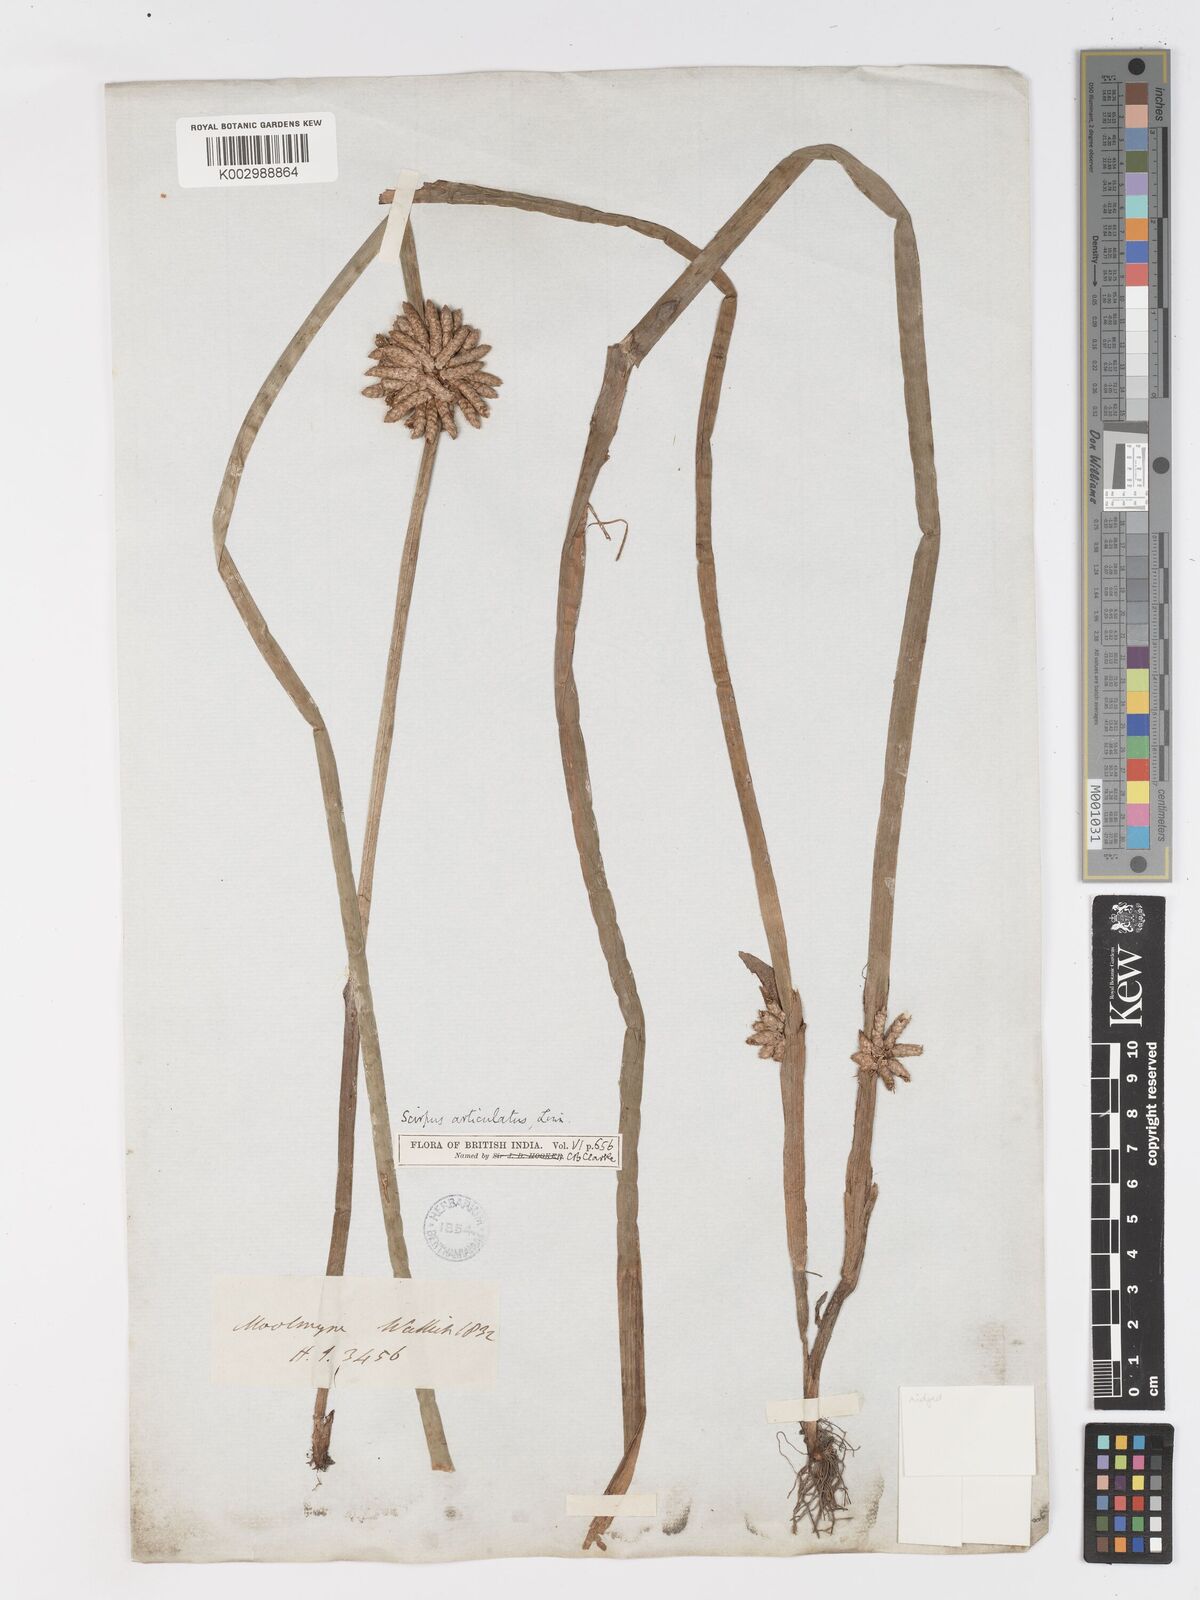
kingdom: Plantae
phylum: Tracheophyta
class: Liliopsida
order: Poales
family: Cyperaceae
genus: Schoenoplectiella
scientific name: Schoenoplectiella praelongata
